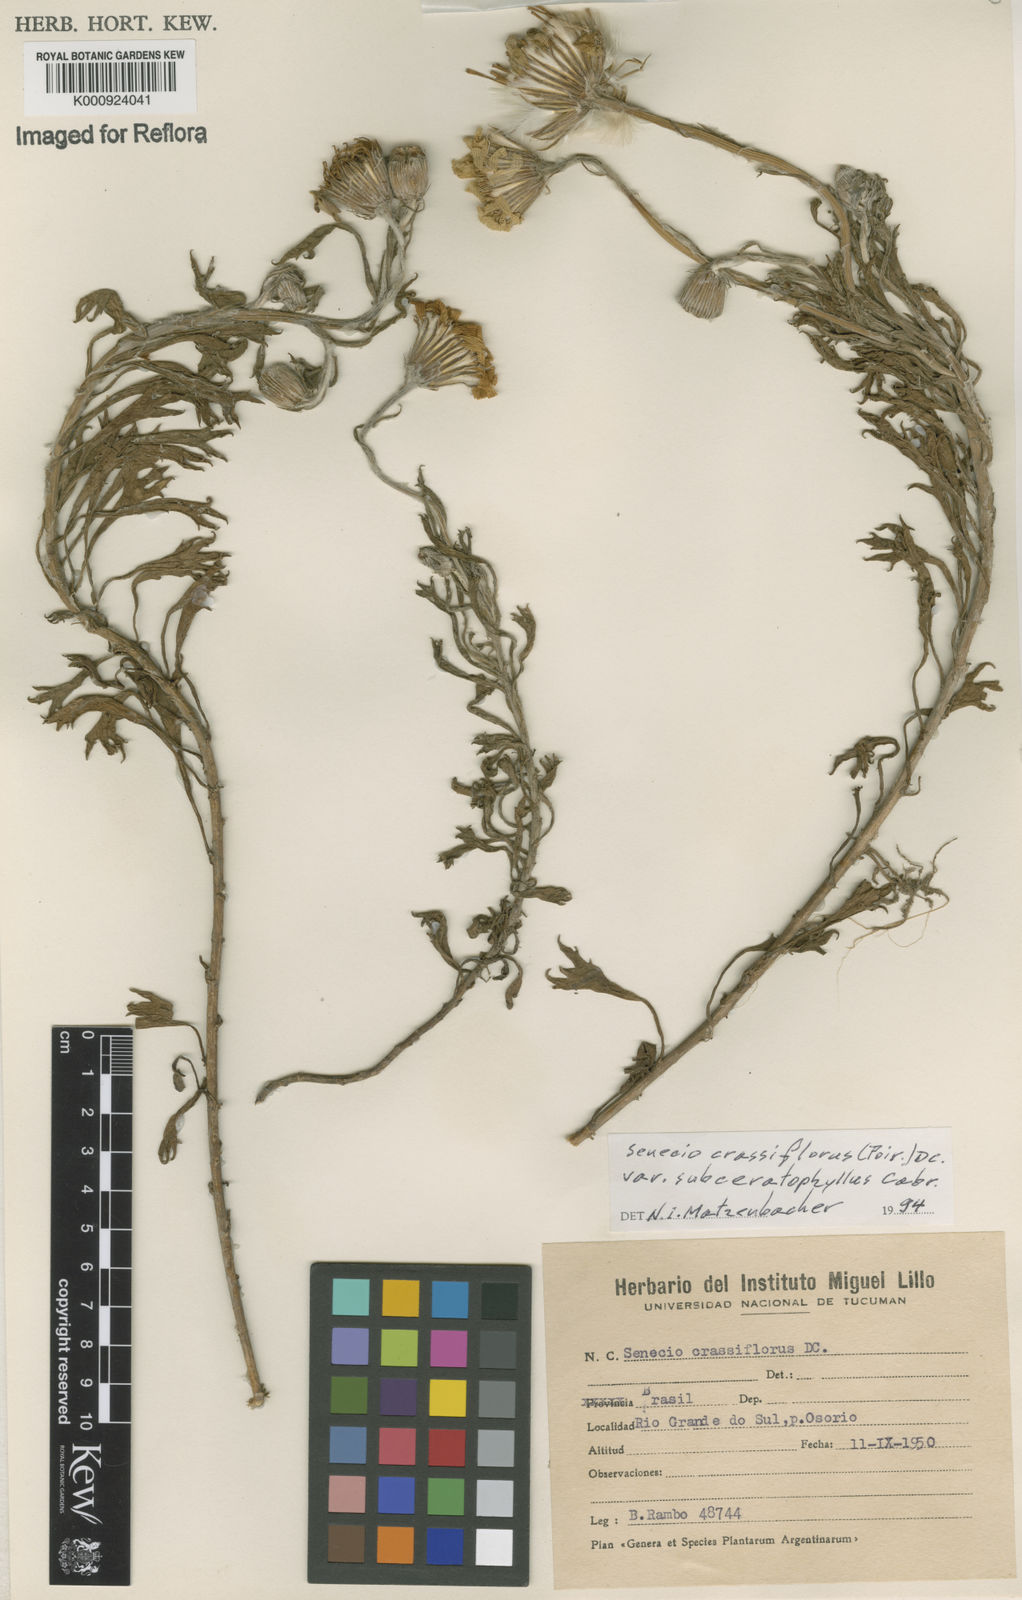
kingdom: Plantae
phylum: Tracheophyta
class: Magnoliopsida
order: Asterales
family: Asteraceae
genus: Senecio
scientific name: Senecio crassiflorus
